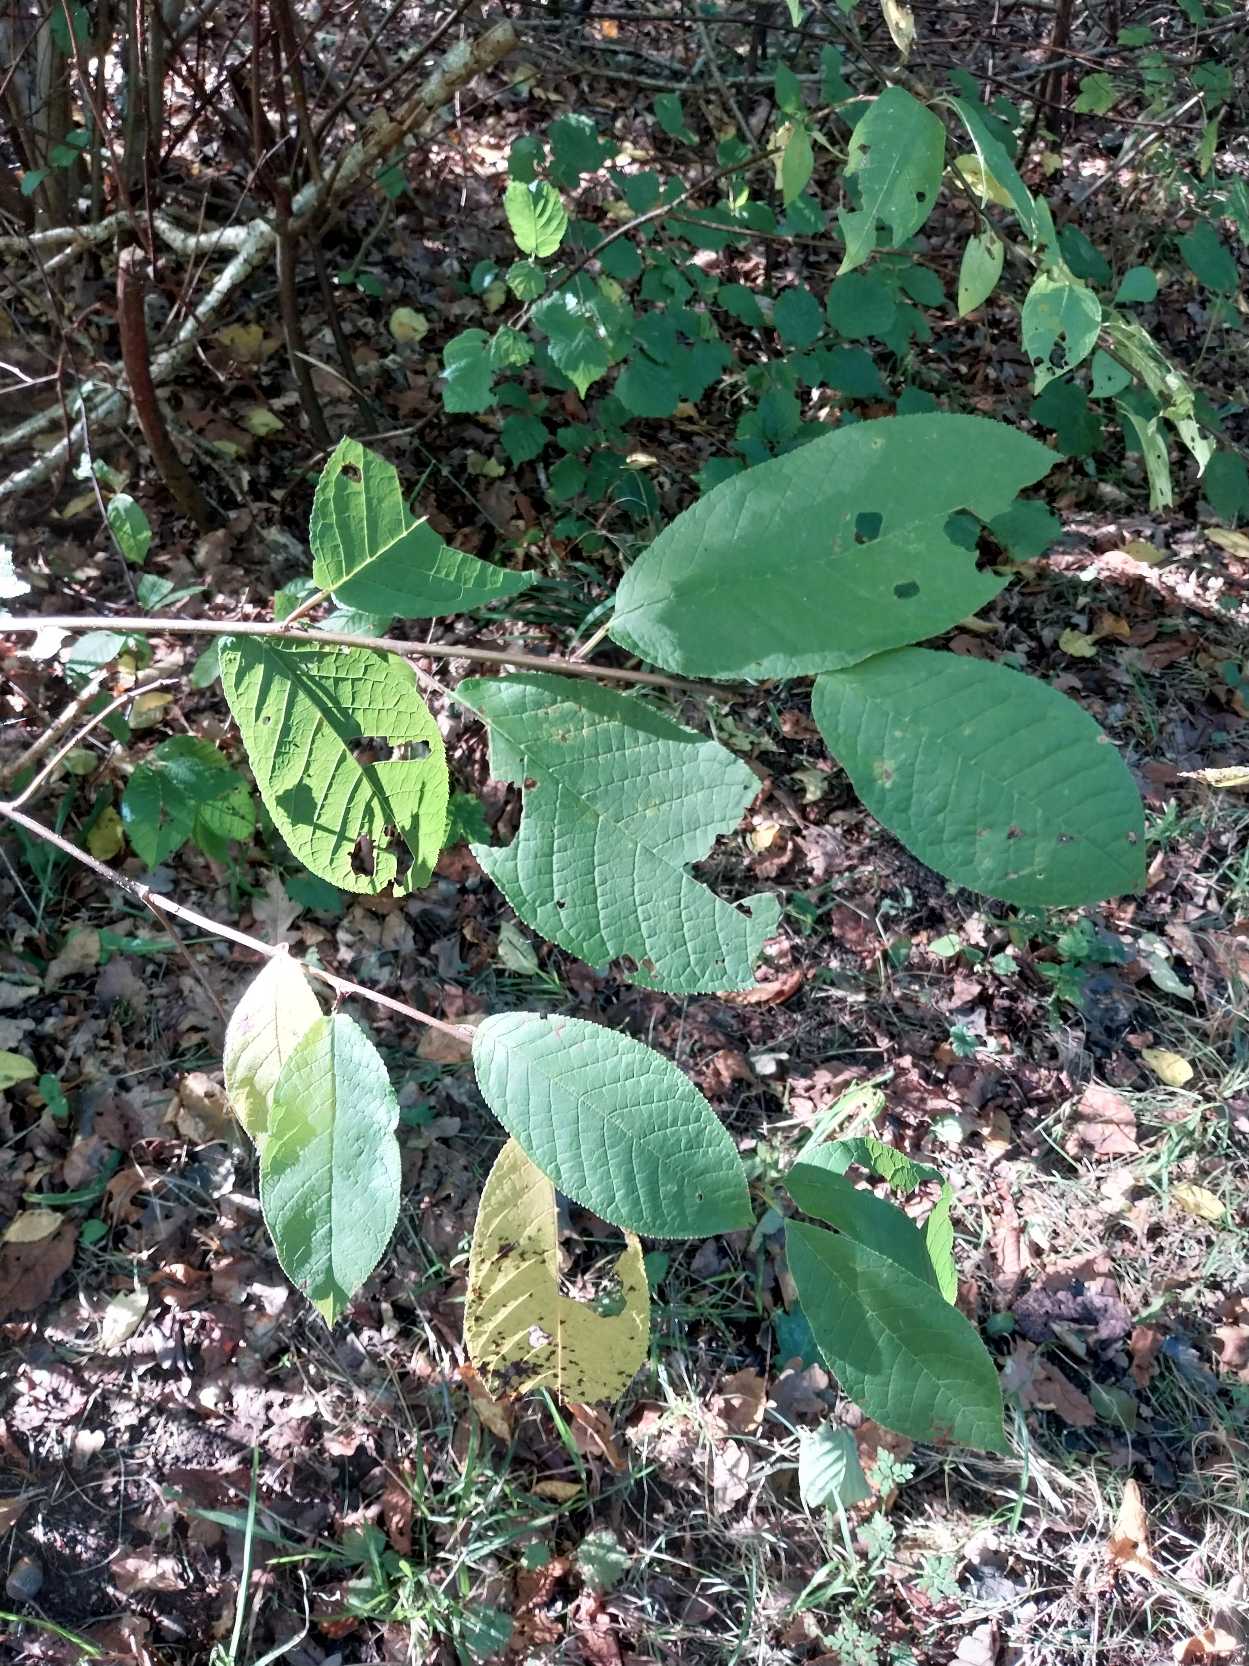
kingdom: Plantae
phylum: Tracheophyta
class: Magnoliopsida
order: Rosales
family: Rosaceae
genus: Prunus
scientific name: Prunus padus
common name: Almindelig hæg
